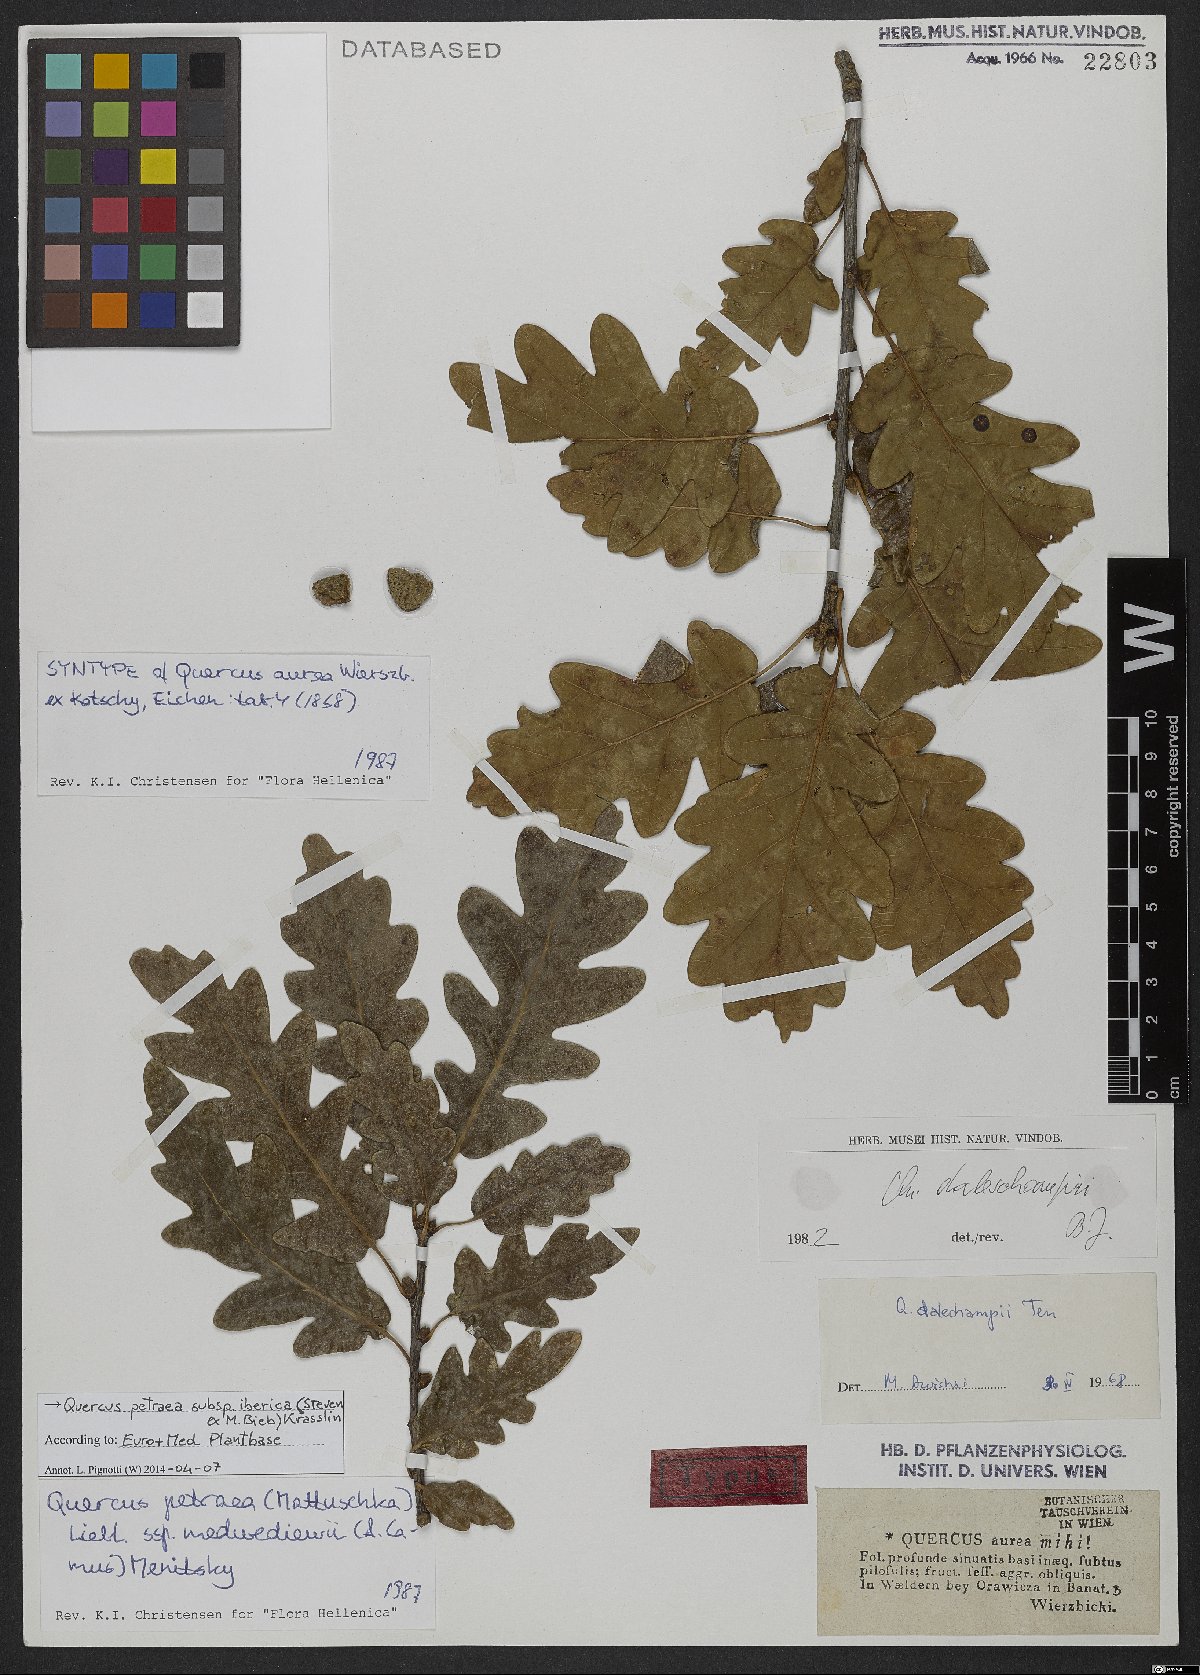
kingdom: Plantae
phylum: Tracheophyta
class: Magnoliopsida
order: Fagales
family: Fagaceae
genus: Quercus
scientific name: Quercus petraea
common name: Sessile oak
